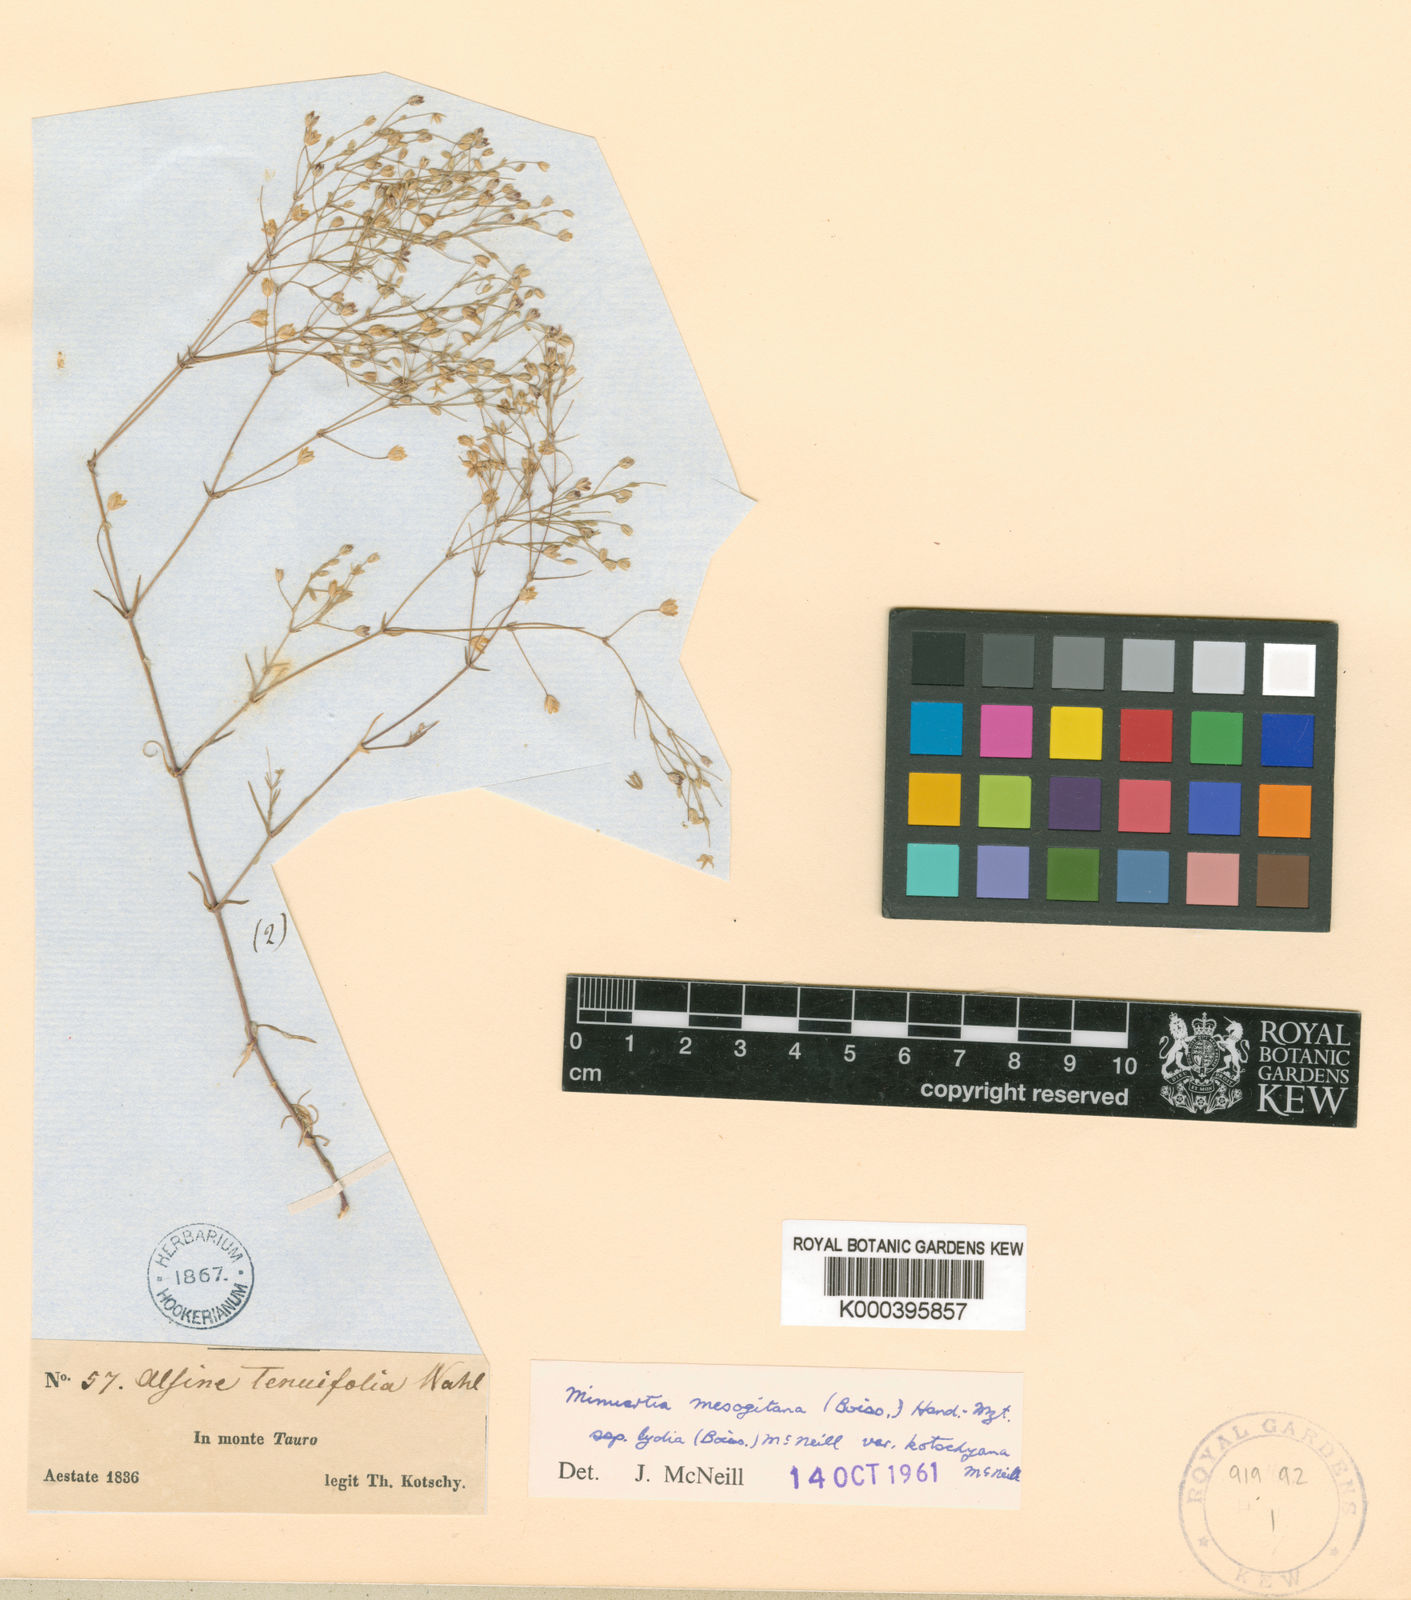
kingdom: Plantae
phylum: Tracheophyta
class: Magnoliopsida
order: Caryophyllales
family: Caryophyllaceae
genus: Sabulina
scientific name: Sabulina mesogitana
